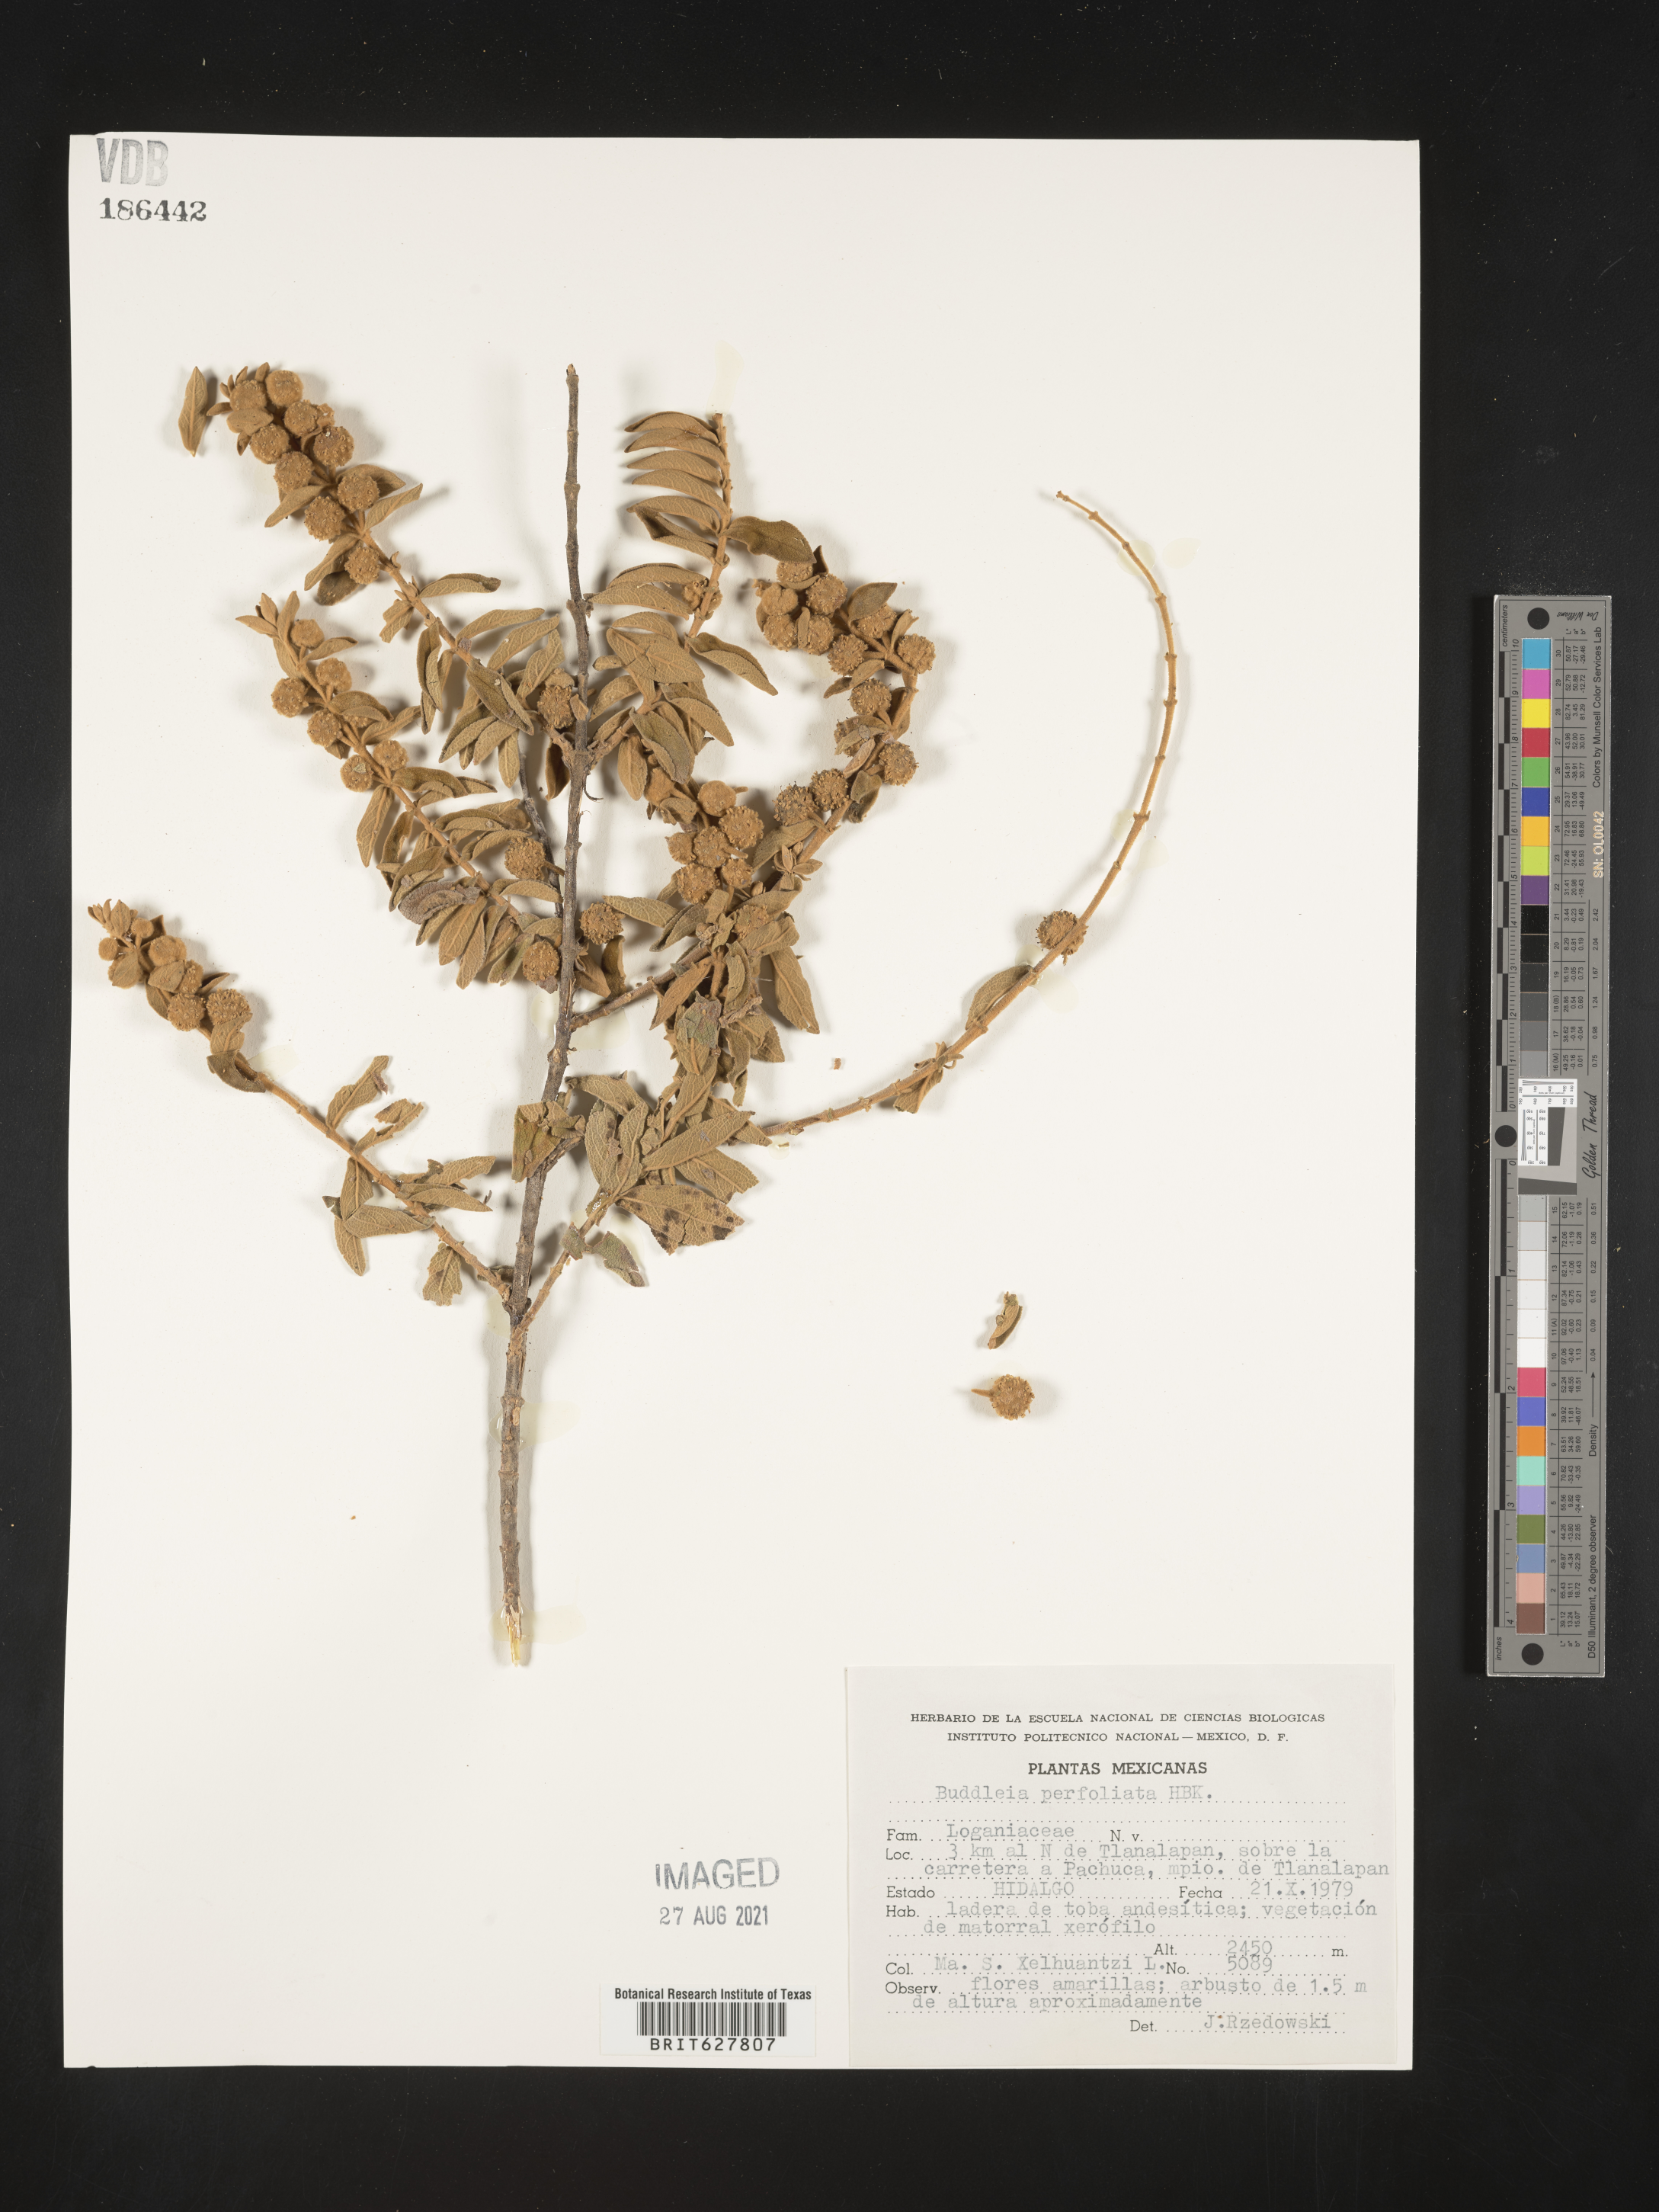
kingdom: Plantae
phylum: Tracheophyta
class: Magnoliopsida
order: Lamiales
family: Scrophulariaceae
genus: Buddleja
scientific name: Buddleja
